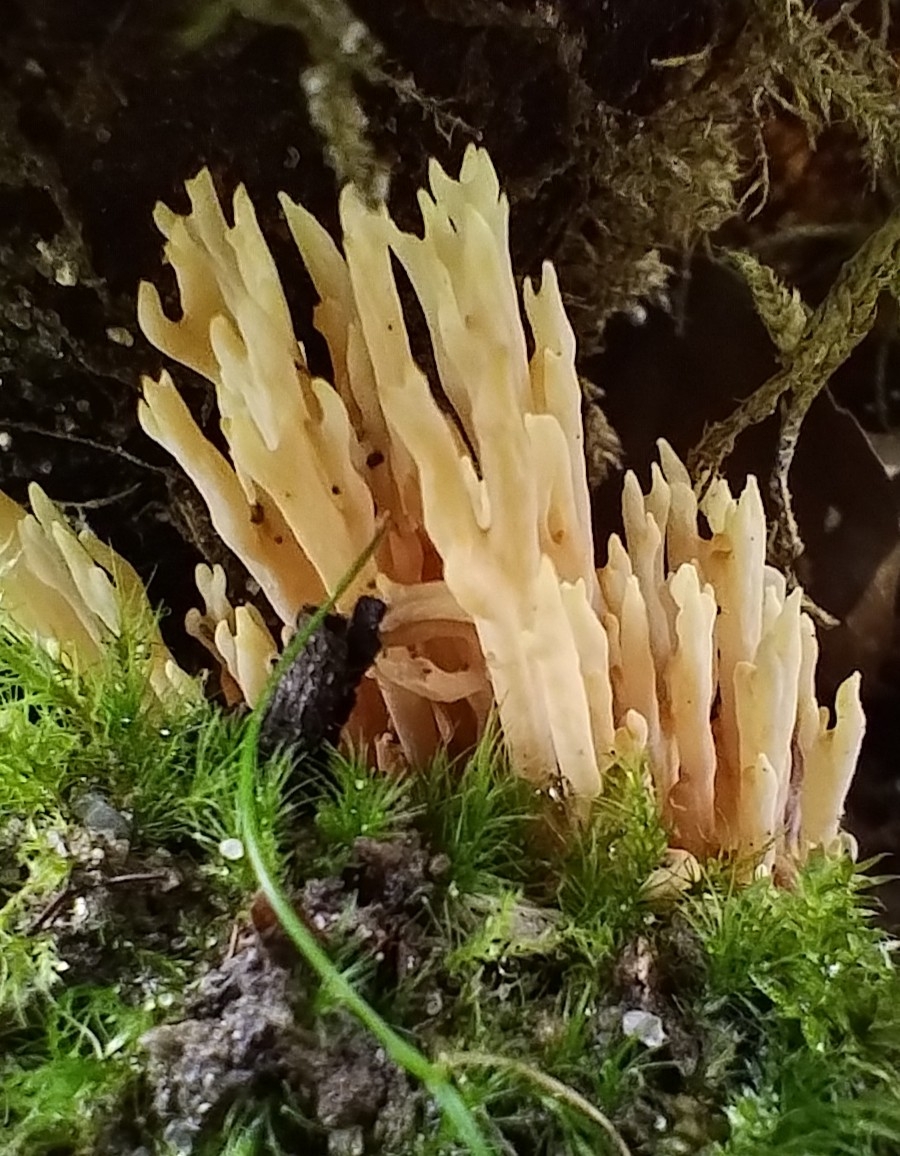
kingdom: Fungi
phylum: Basidiomycota
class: Agaricomycetes
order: Gomphales
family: Gomphaceae
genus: Ramaria
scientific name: Ramaria stricta
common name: rank koralsvamp
